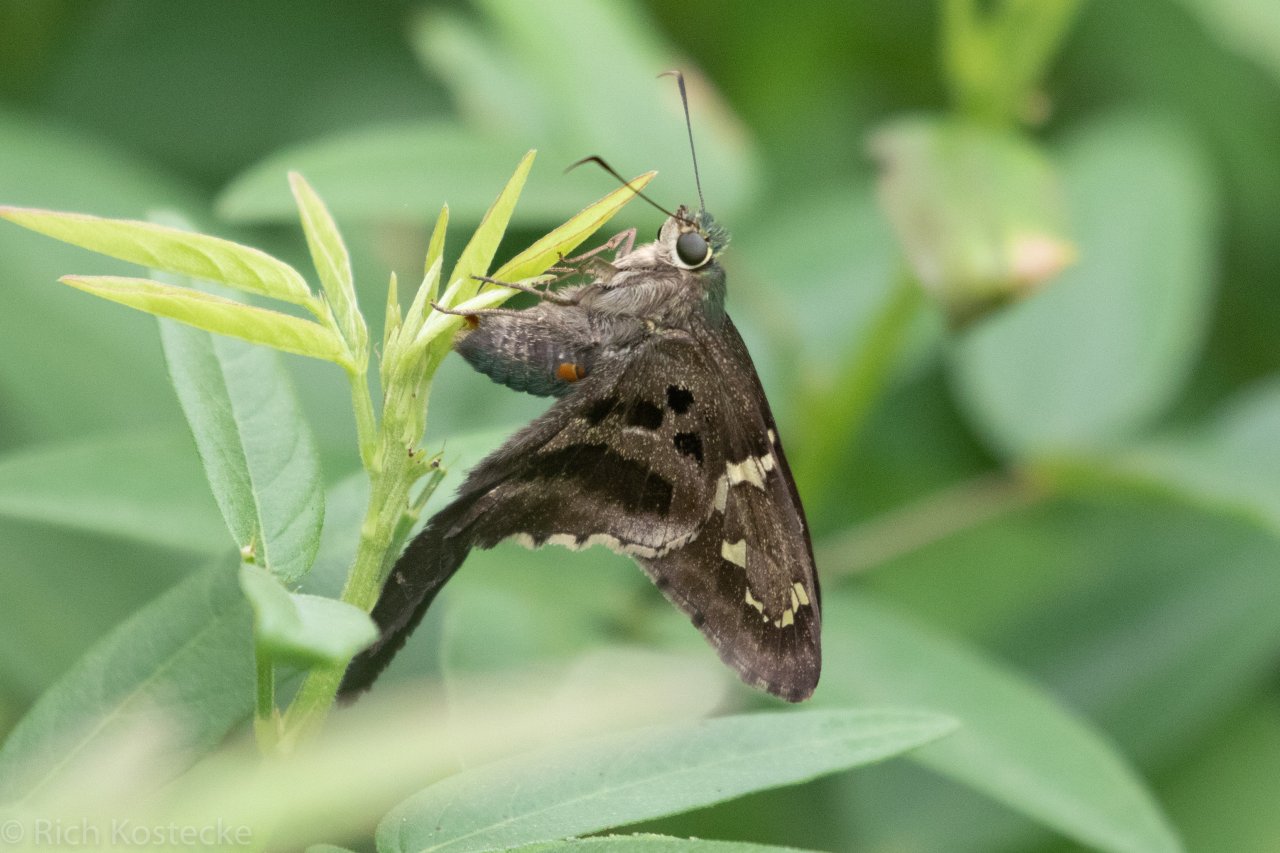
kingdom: Animalia
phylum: Arthropoda
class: Insecta
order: Lepidoptera
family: Hesperiidae
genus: Urbanus
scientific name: Urbanus proteus
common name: Long-tailed Skipper
